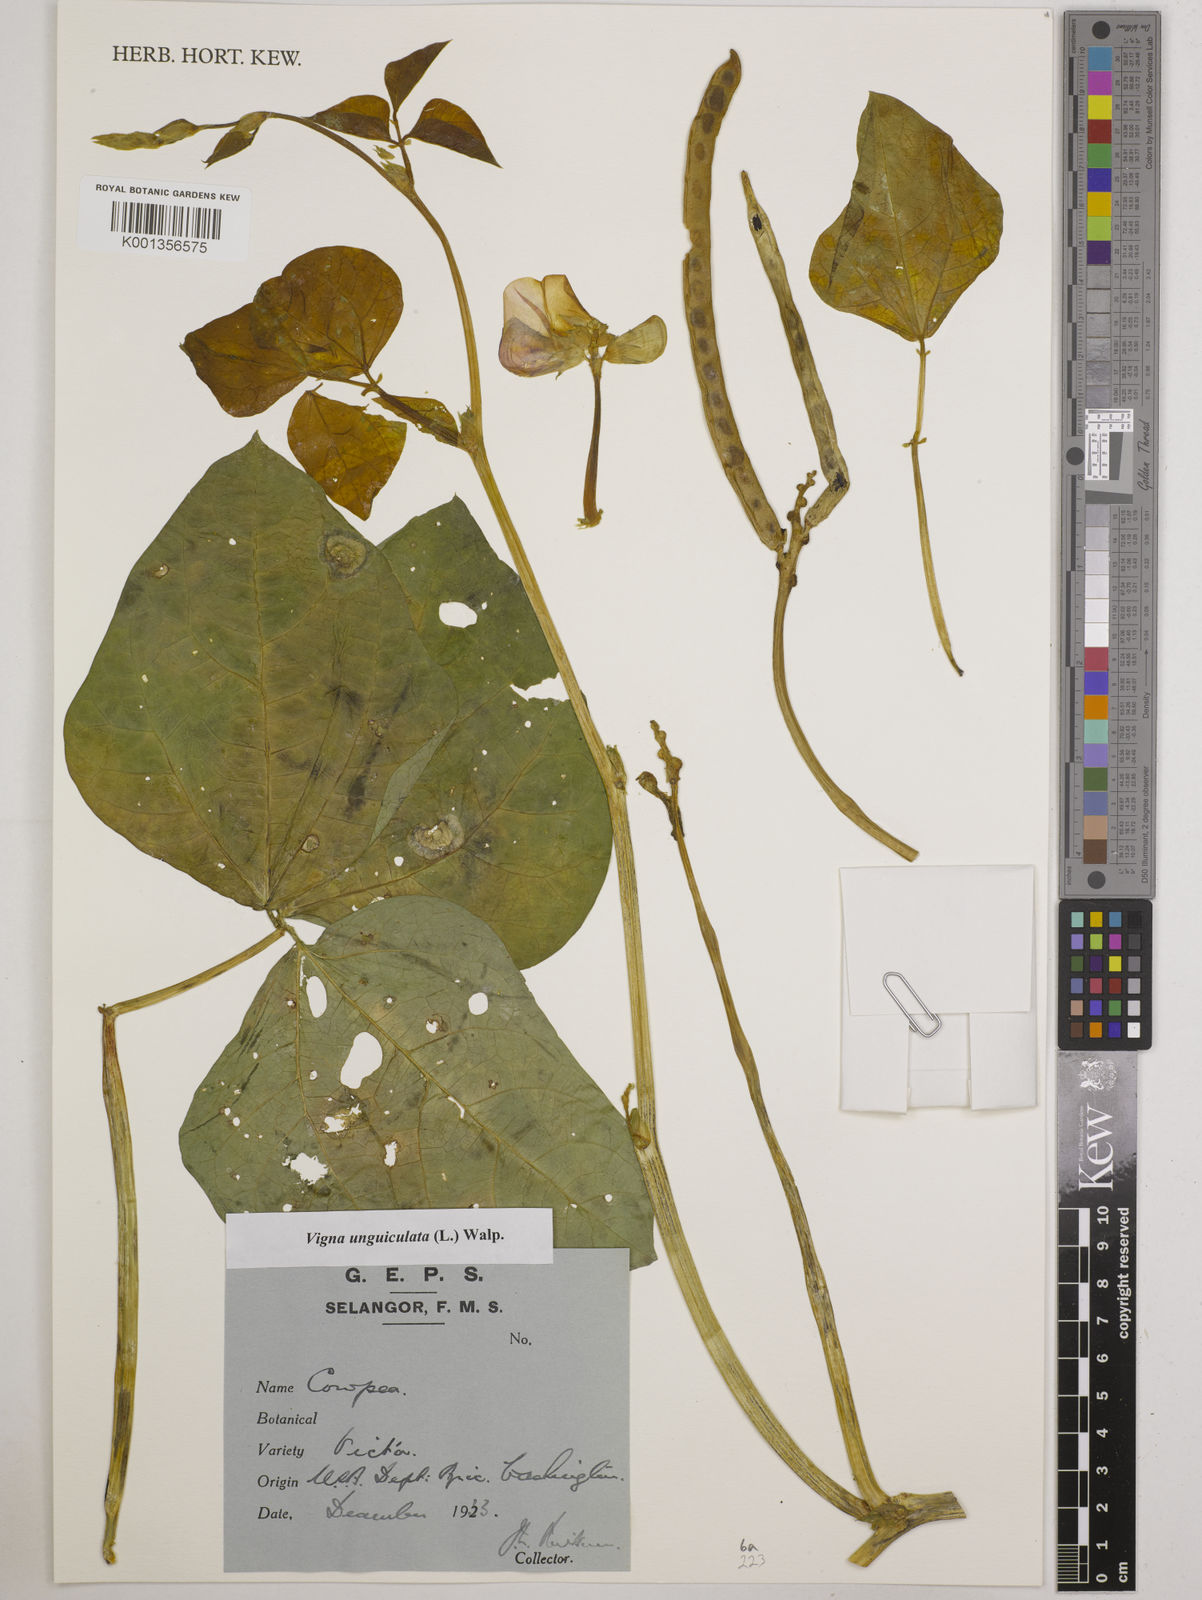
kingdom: Plantae
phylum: Tracheophyta
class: Magnoliopsida
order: Fabales
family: Fabaceae
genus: Vigna
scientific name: Vigna unguiculata
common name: Cowpea
